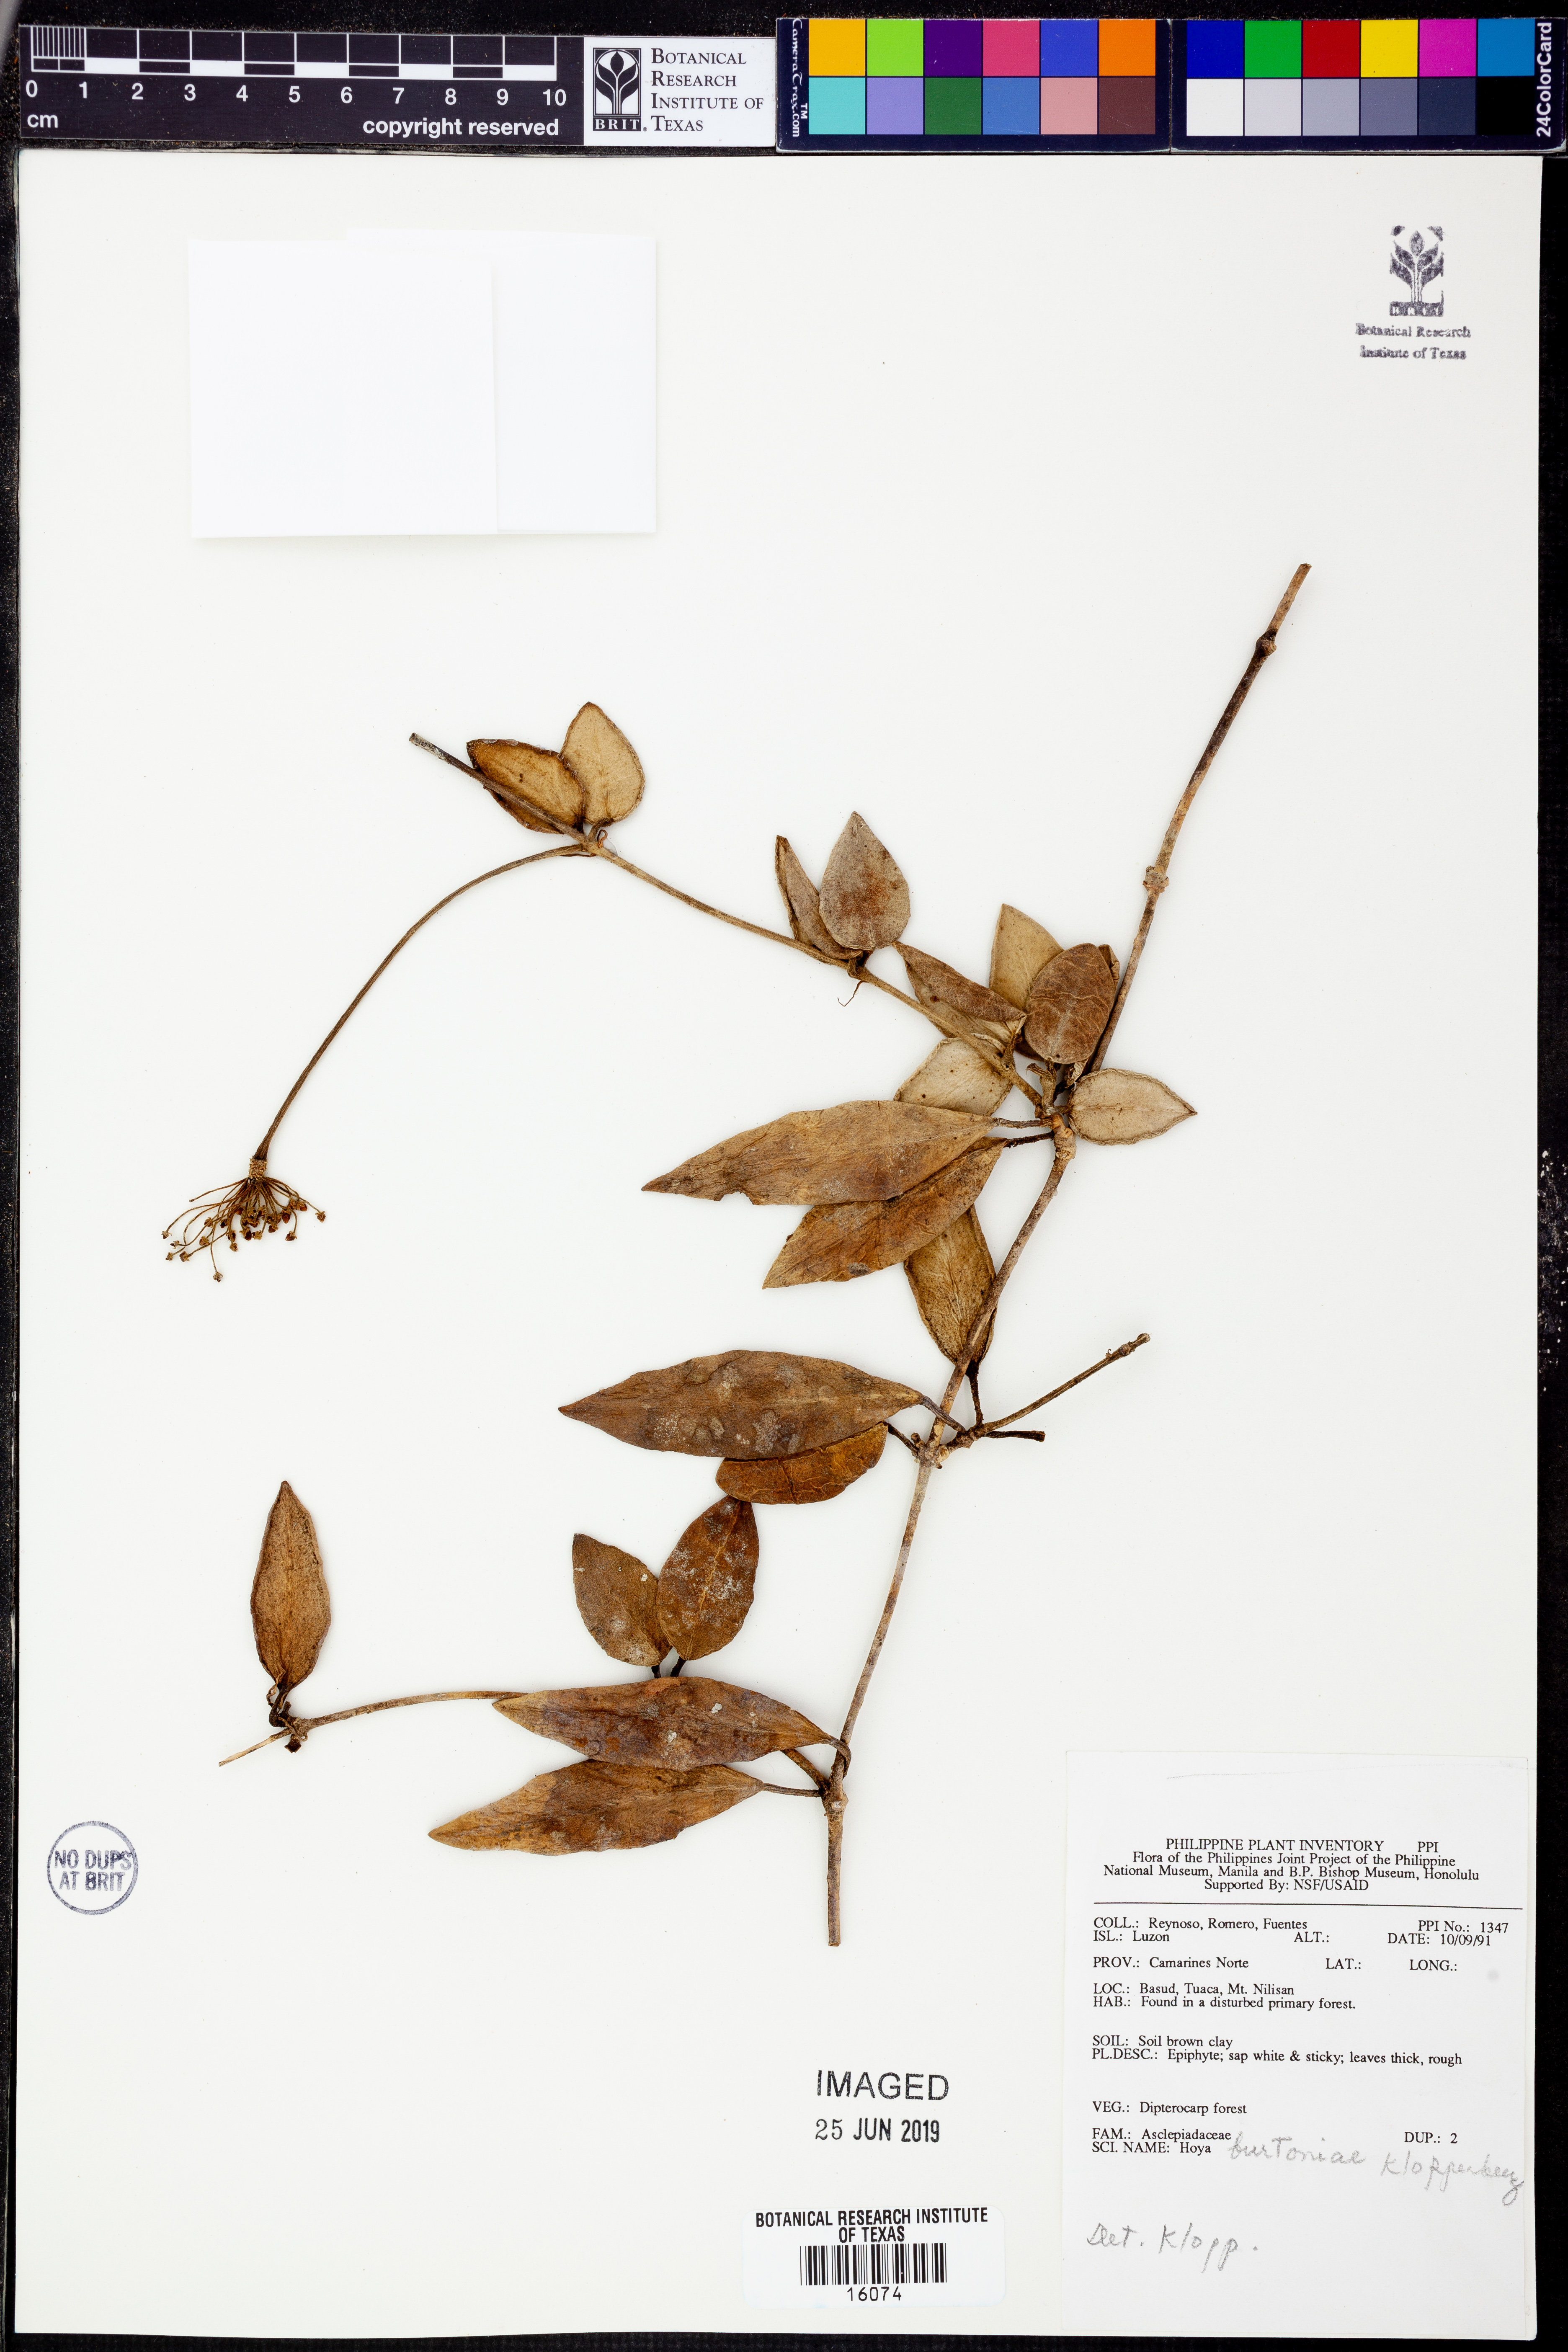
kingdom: Plantae
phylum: Tracheophyta
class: Magnoliopsida
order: Gentianales
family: Apocynaceae
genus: Hoya
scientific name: Hoya burtoniae
